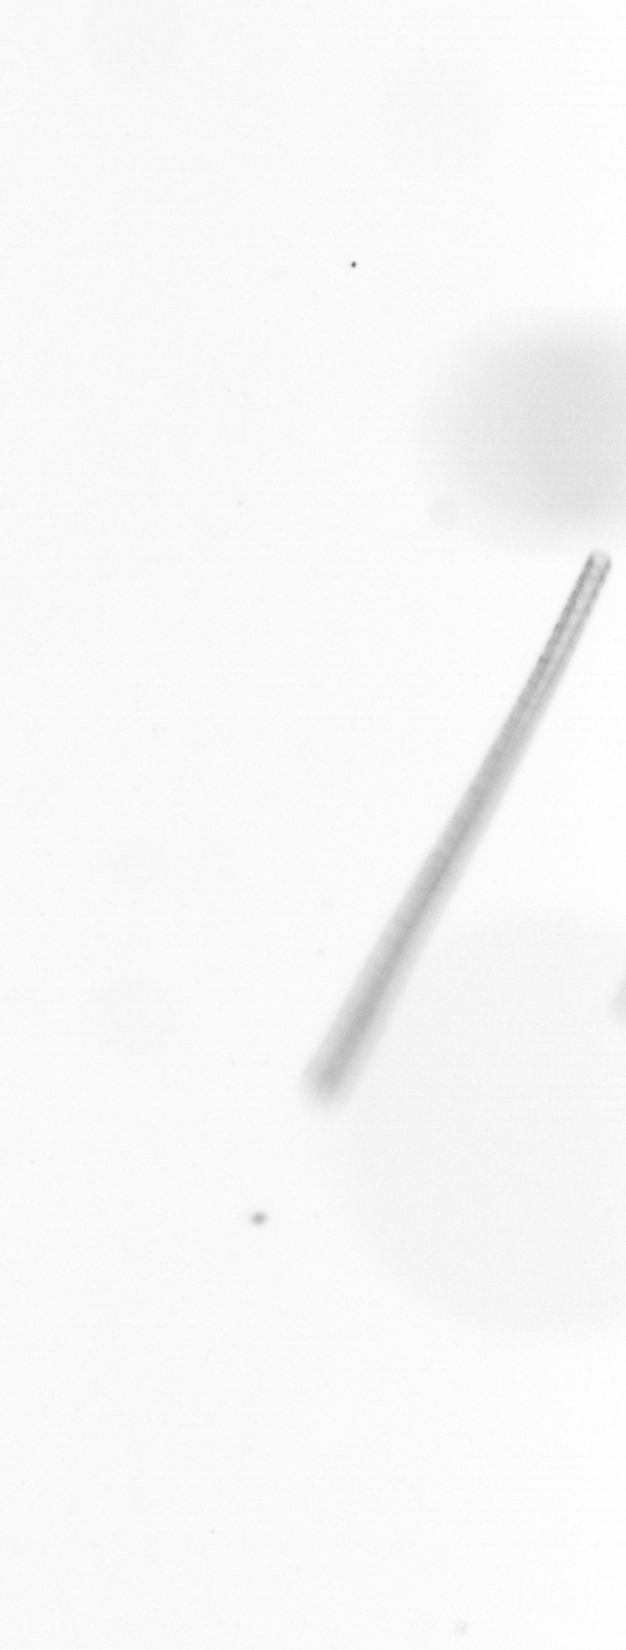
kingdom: Chromista
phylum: Ochrophyta
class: Bacillariophyceae
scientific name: Bacillariophyceae
